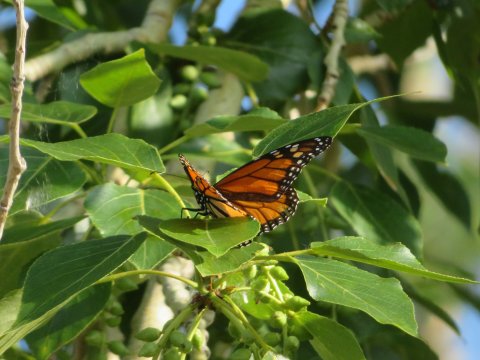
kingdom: Animalia
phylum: Arthropoda
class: Insecta
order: Lepidoptera
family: Nymphalidae
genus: Danaus
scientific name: Danaus plexippus
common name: Monarch
